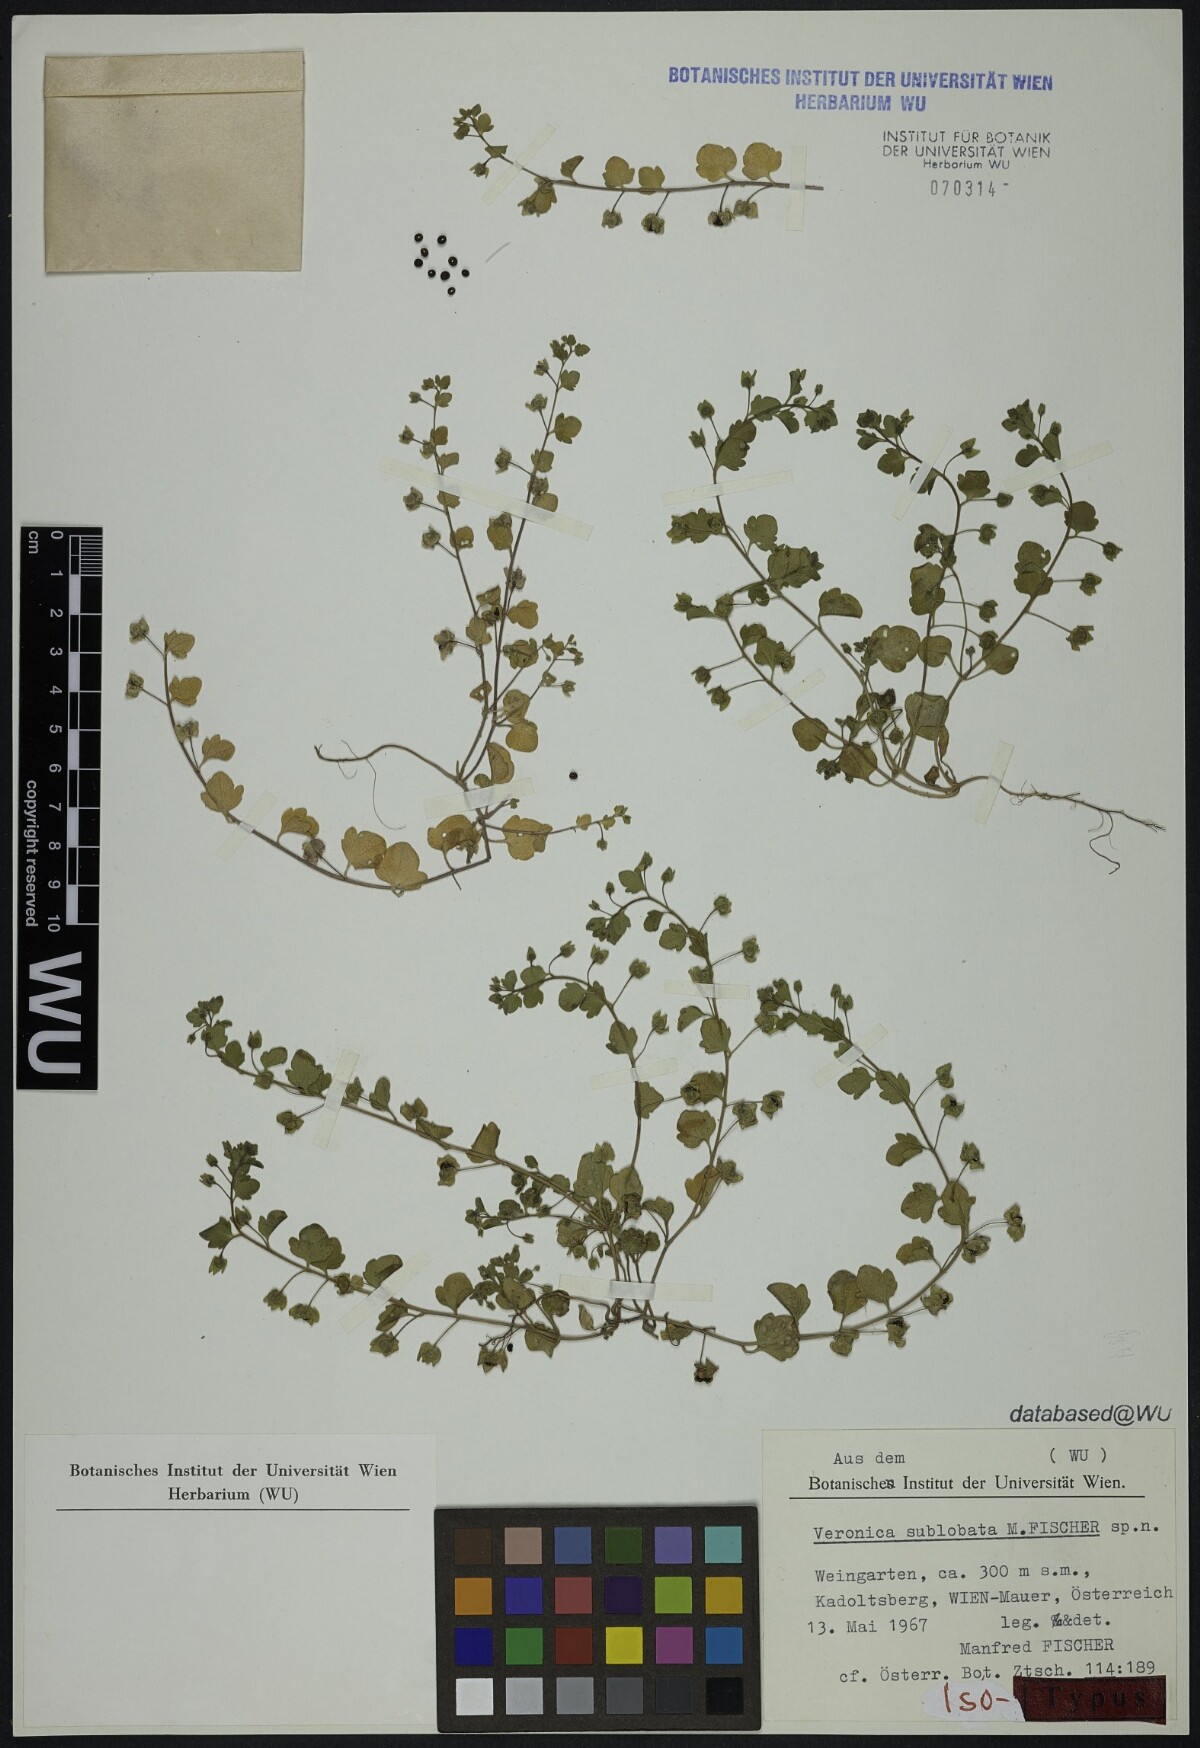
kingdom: Plantae
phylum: Tracheophyta
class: Magnoliopsida
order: Lamiales
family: Plantaginaceae
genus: Veronica
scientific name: Veronica sublobata
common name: False ivy-leaved speedwell
